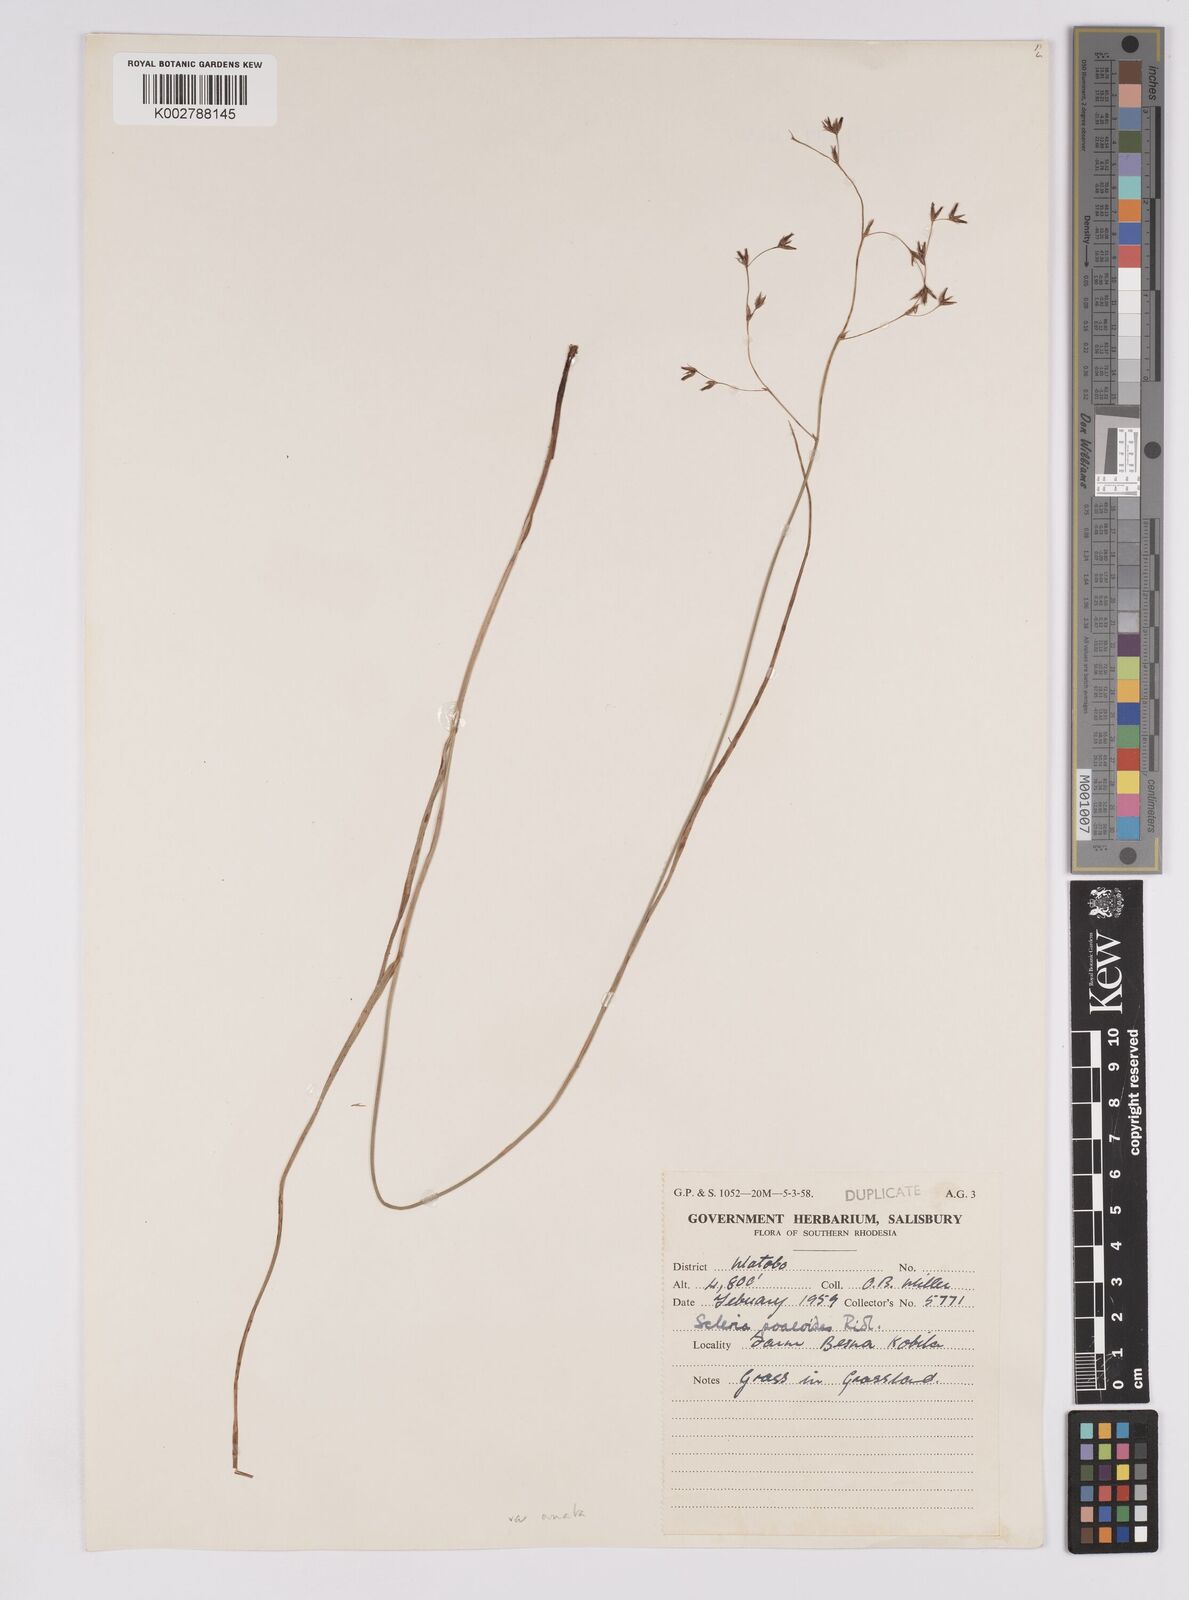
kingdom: Plantae
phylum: Tracheophyta
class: Liliopsida
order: Poales
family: Cyperaceae
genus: Scleria
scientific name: Scleria woodii
